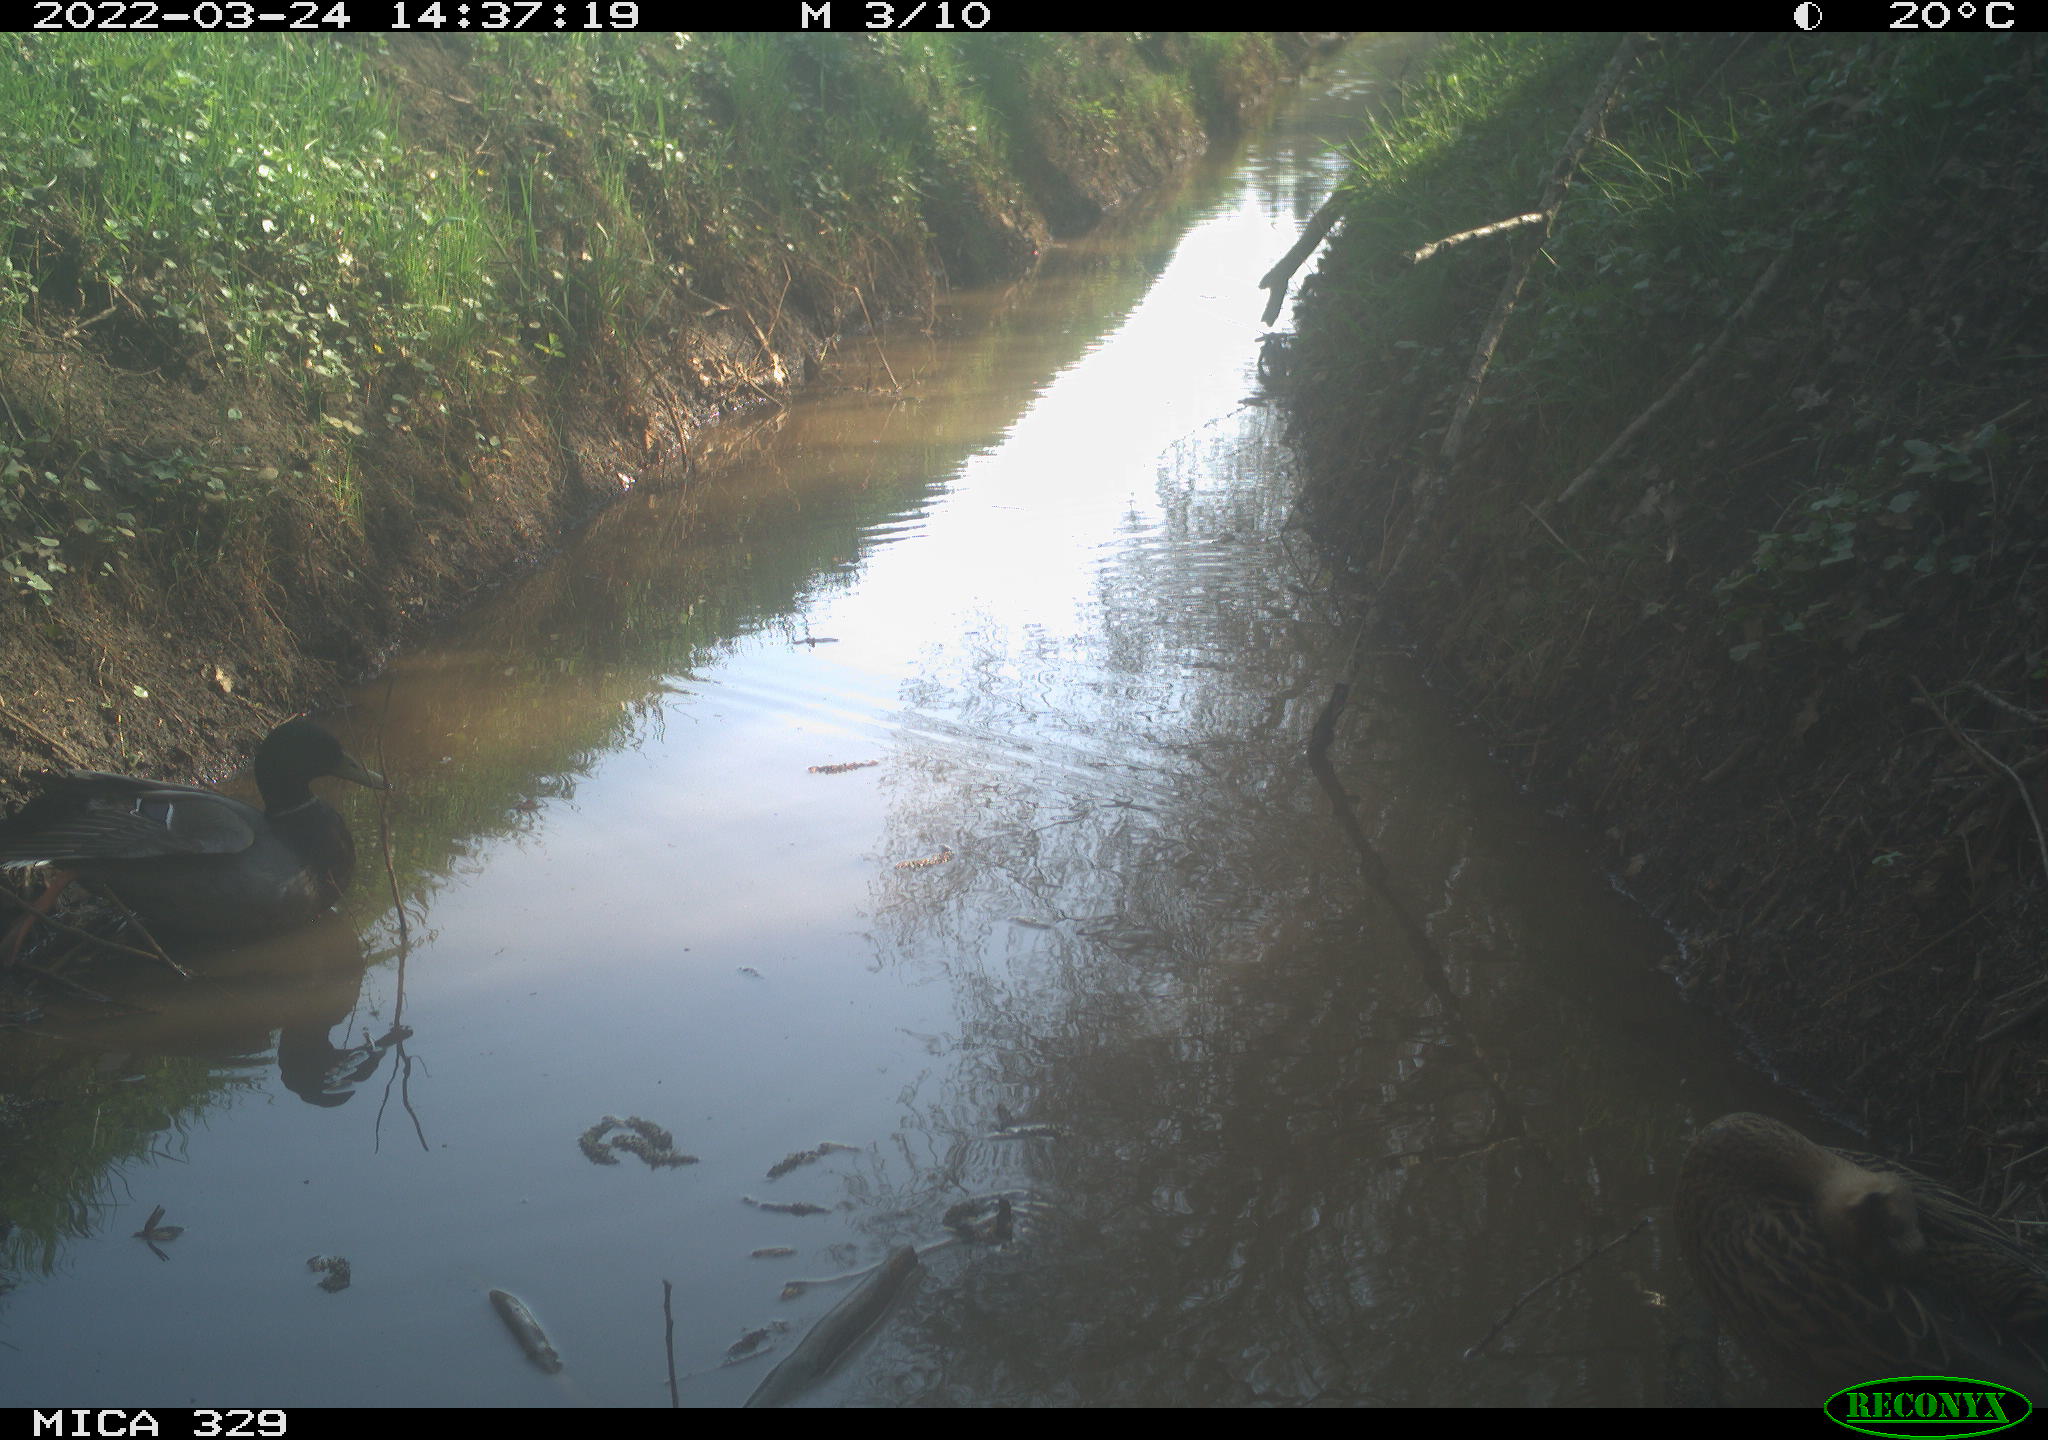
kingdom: Animalia
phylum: Chordata
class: Aves
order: Anseriformes
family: Anatidae
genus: Anas
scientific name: Anas platyrhynchos
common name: Mallard
